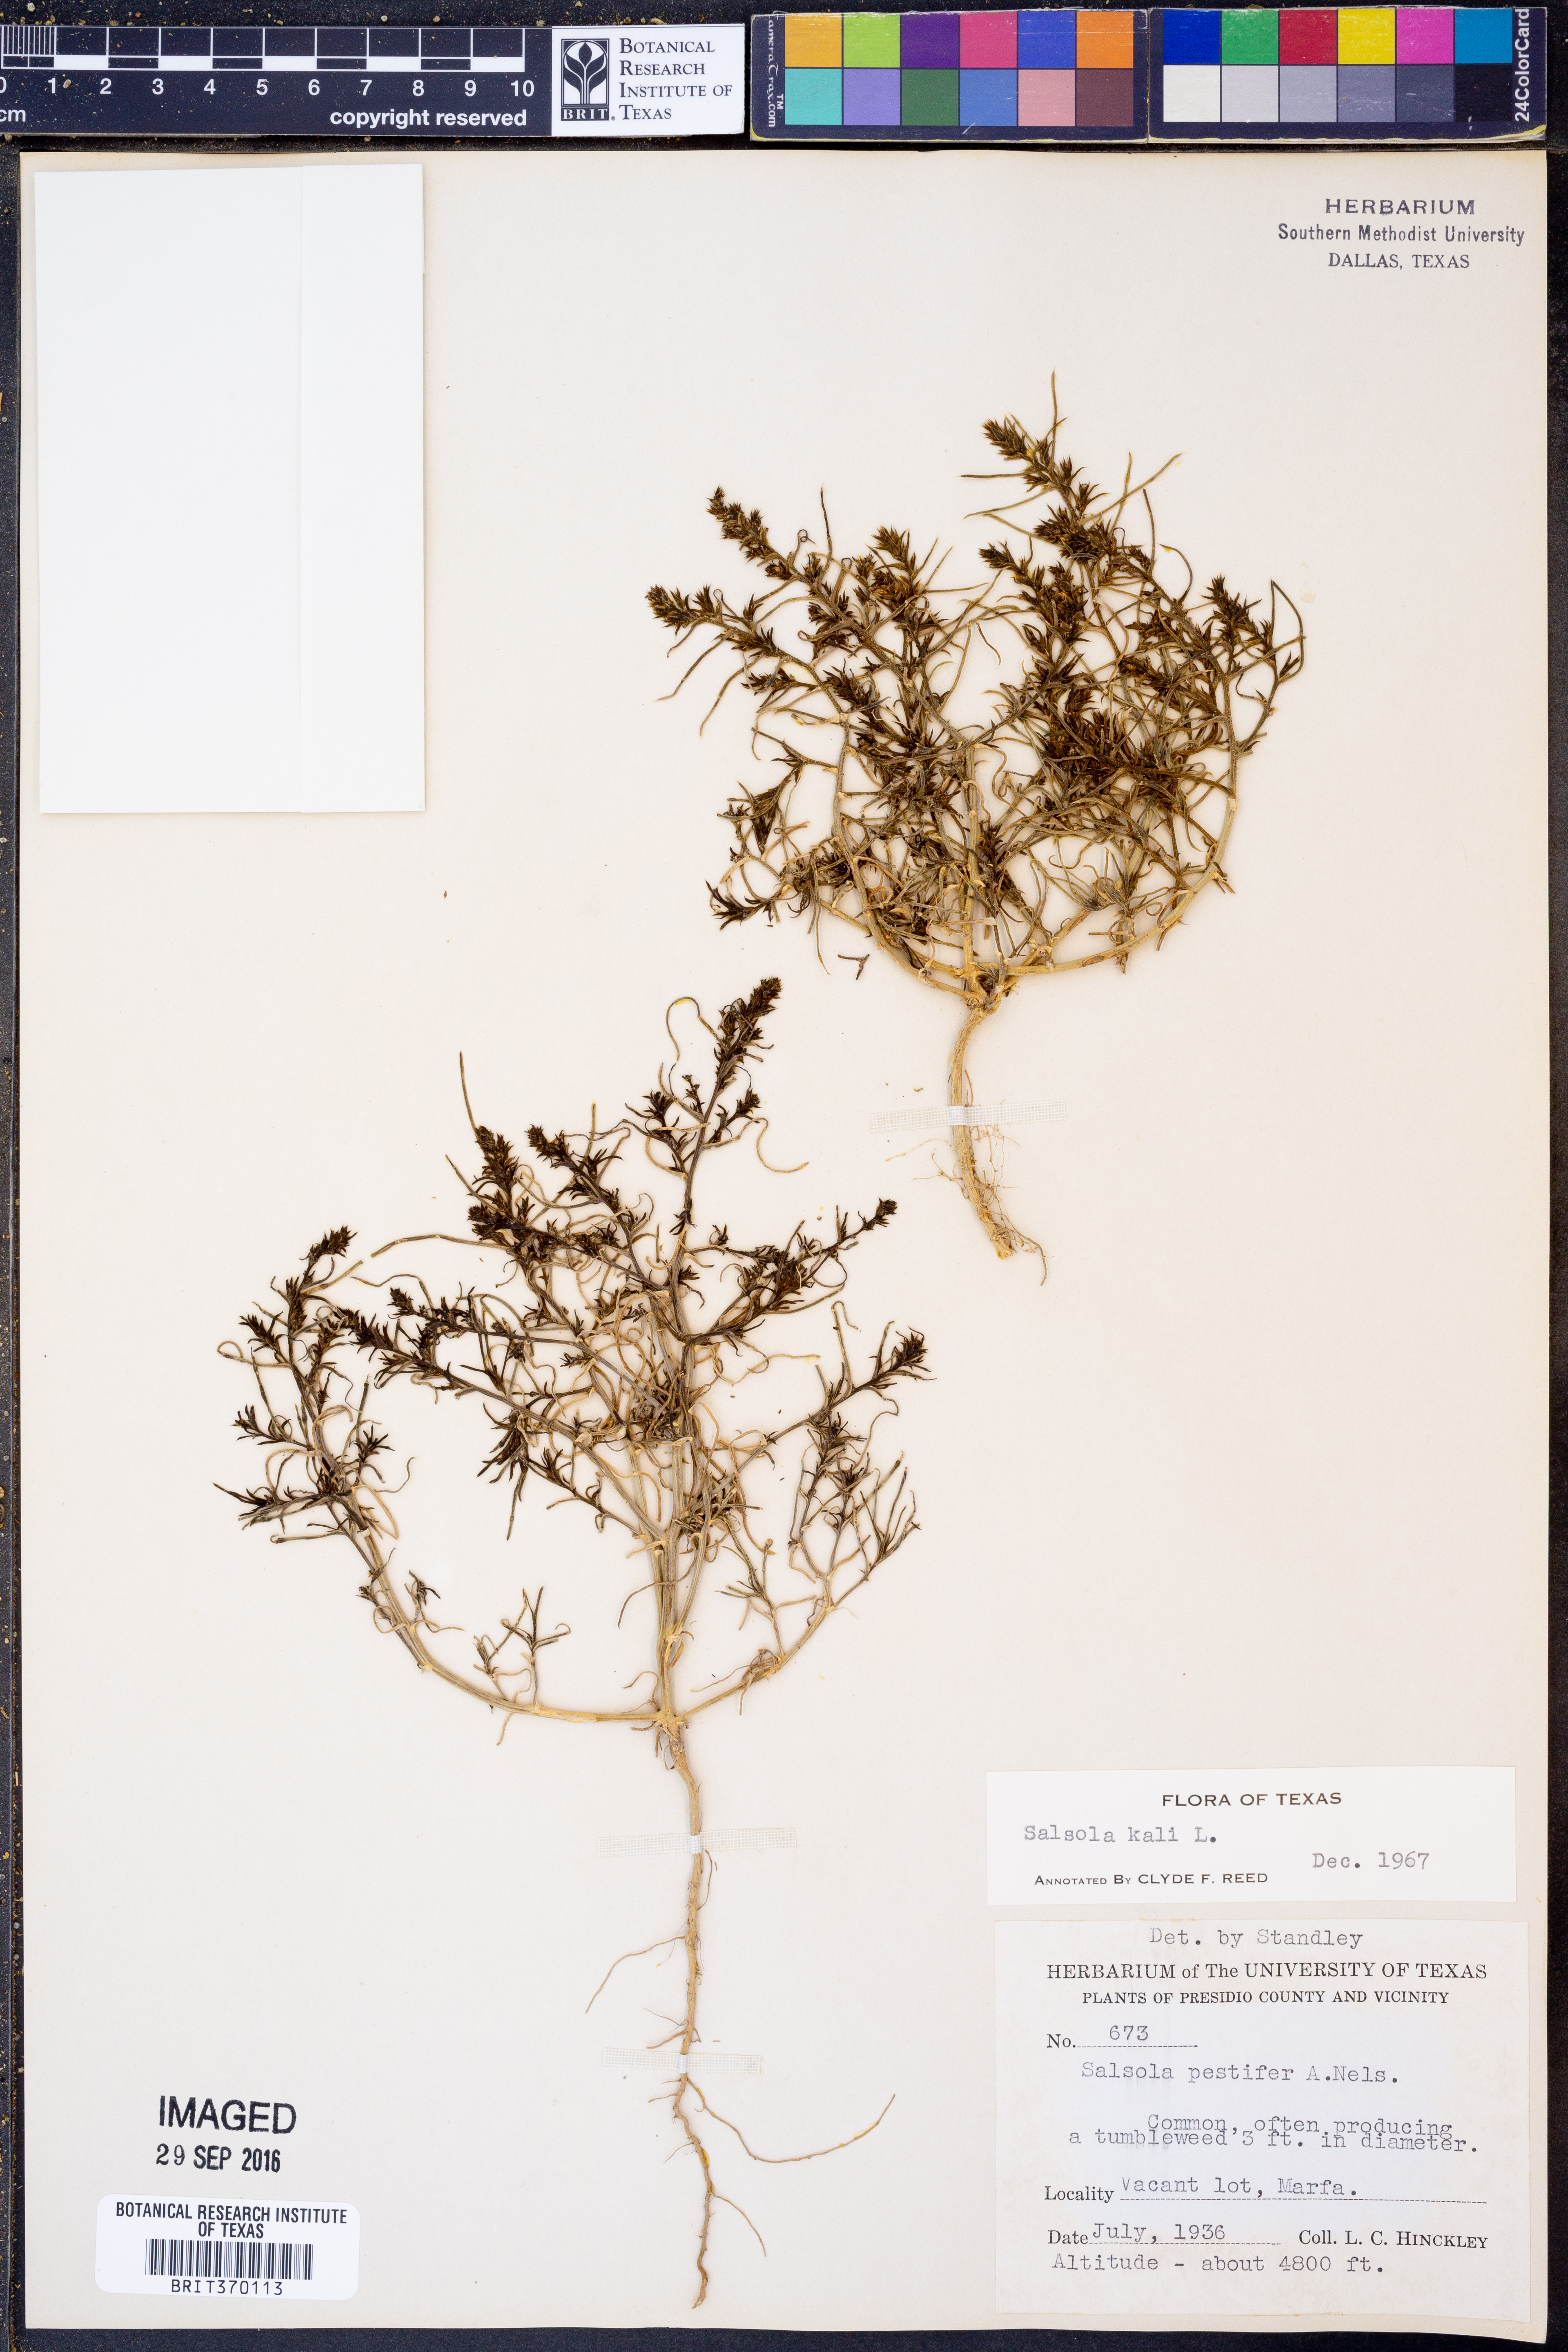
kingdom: Plantae
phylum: Tracheophyta
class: Magnoliopsida
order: Caryophyllales
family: Amaranthaceae
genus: Salsola
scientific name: Salsola kali
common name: Saltwort
